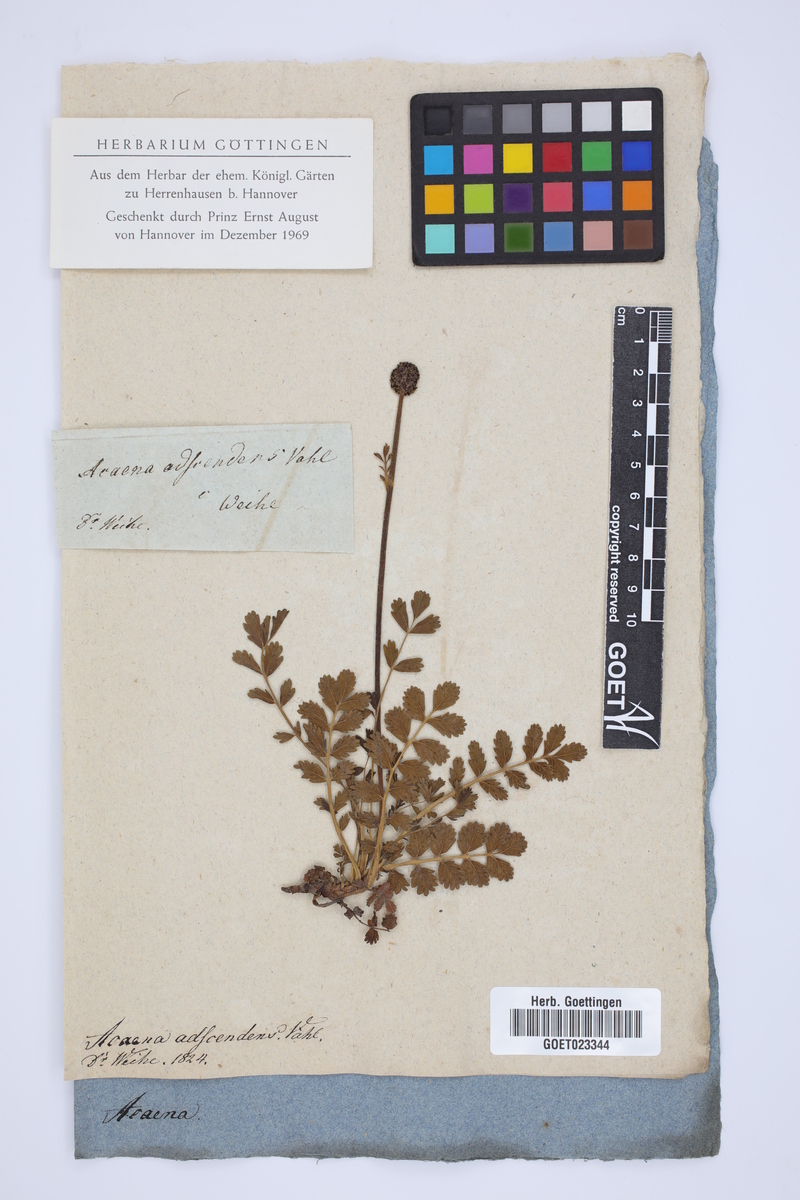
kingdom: Plantae
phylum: Tracheophyta
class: Magnoliopsida
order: Rosales
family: Rosaceae
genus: Acaena
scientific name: Acaena magellanica
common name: New zealand burr
